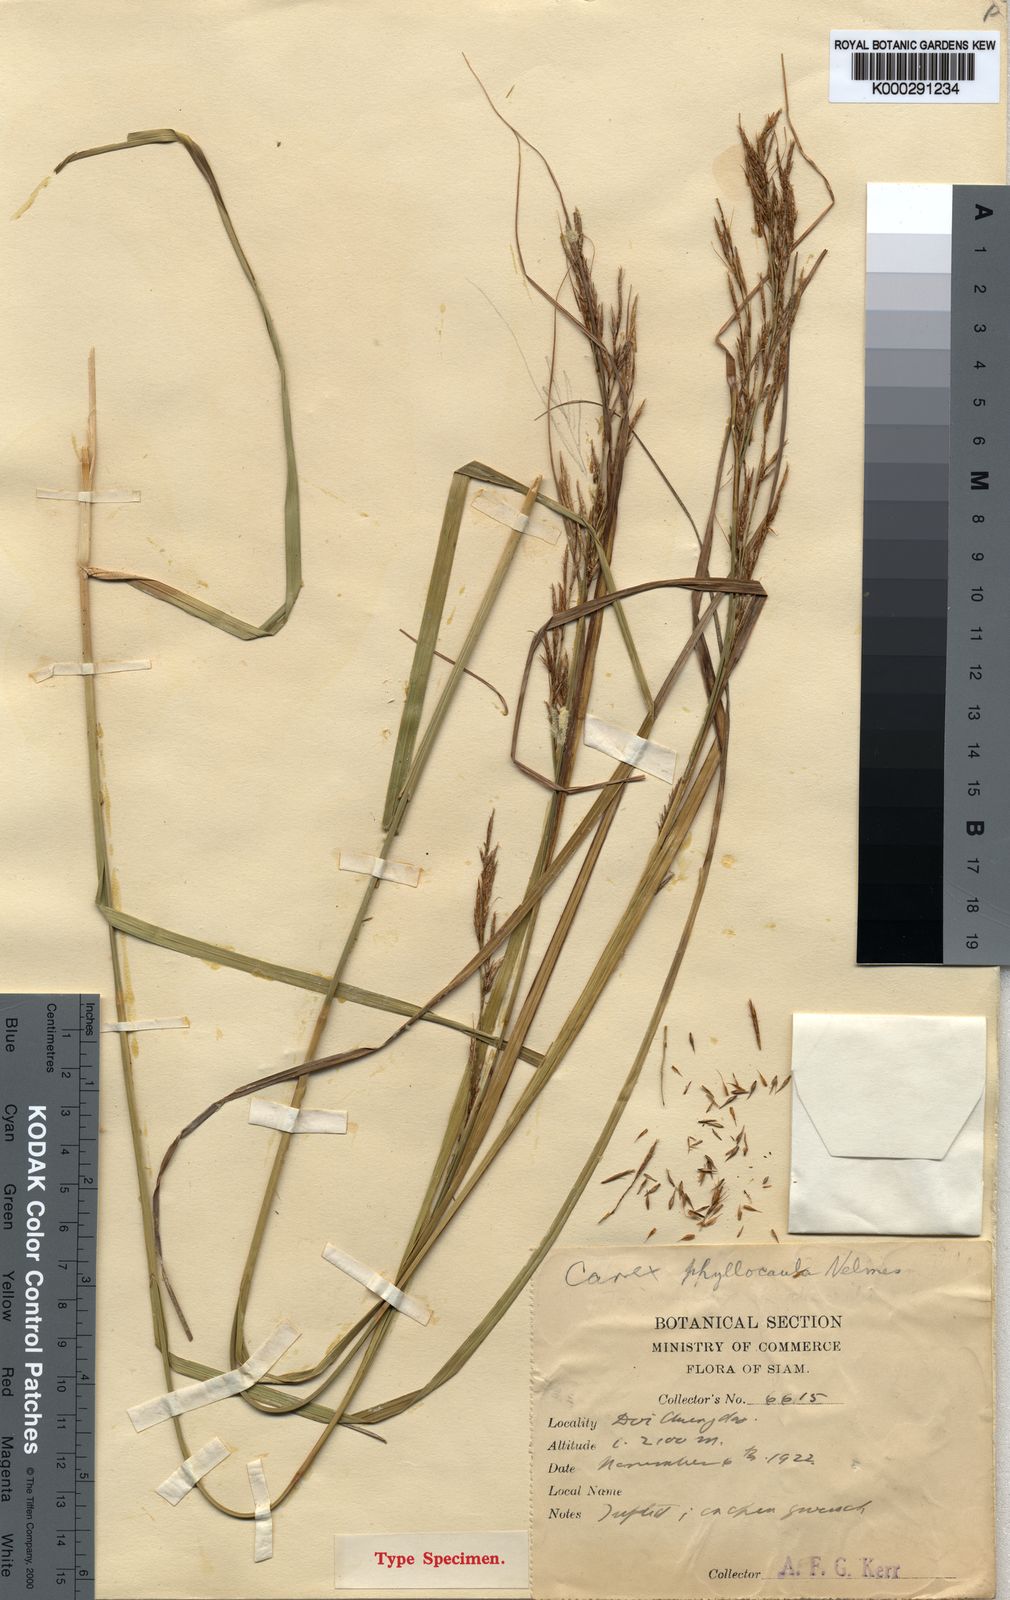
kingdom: Plantae
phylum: Tracheophyta
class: Liliopsida
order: Poales
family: Cyperaceae
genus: Carex
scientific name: Carex phyllocaula
